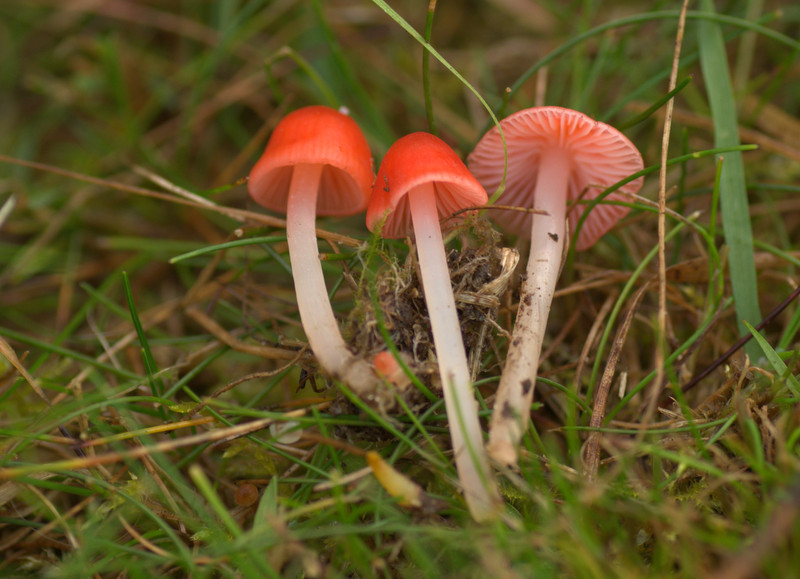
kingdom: Fungi
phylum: Basidiomycota
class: Agaricomycetes
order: Agaricales
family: Mycenaceae
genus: Atheniella
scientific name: Atheniella adonis
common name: rønnerød huesvamp
